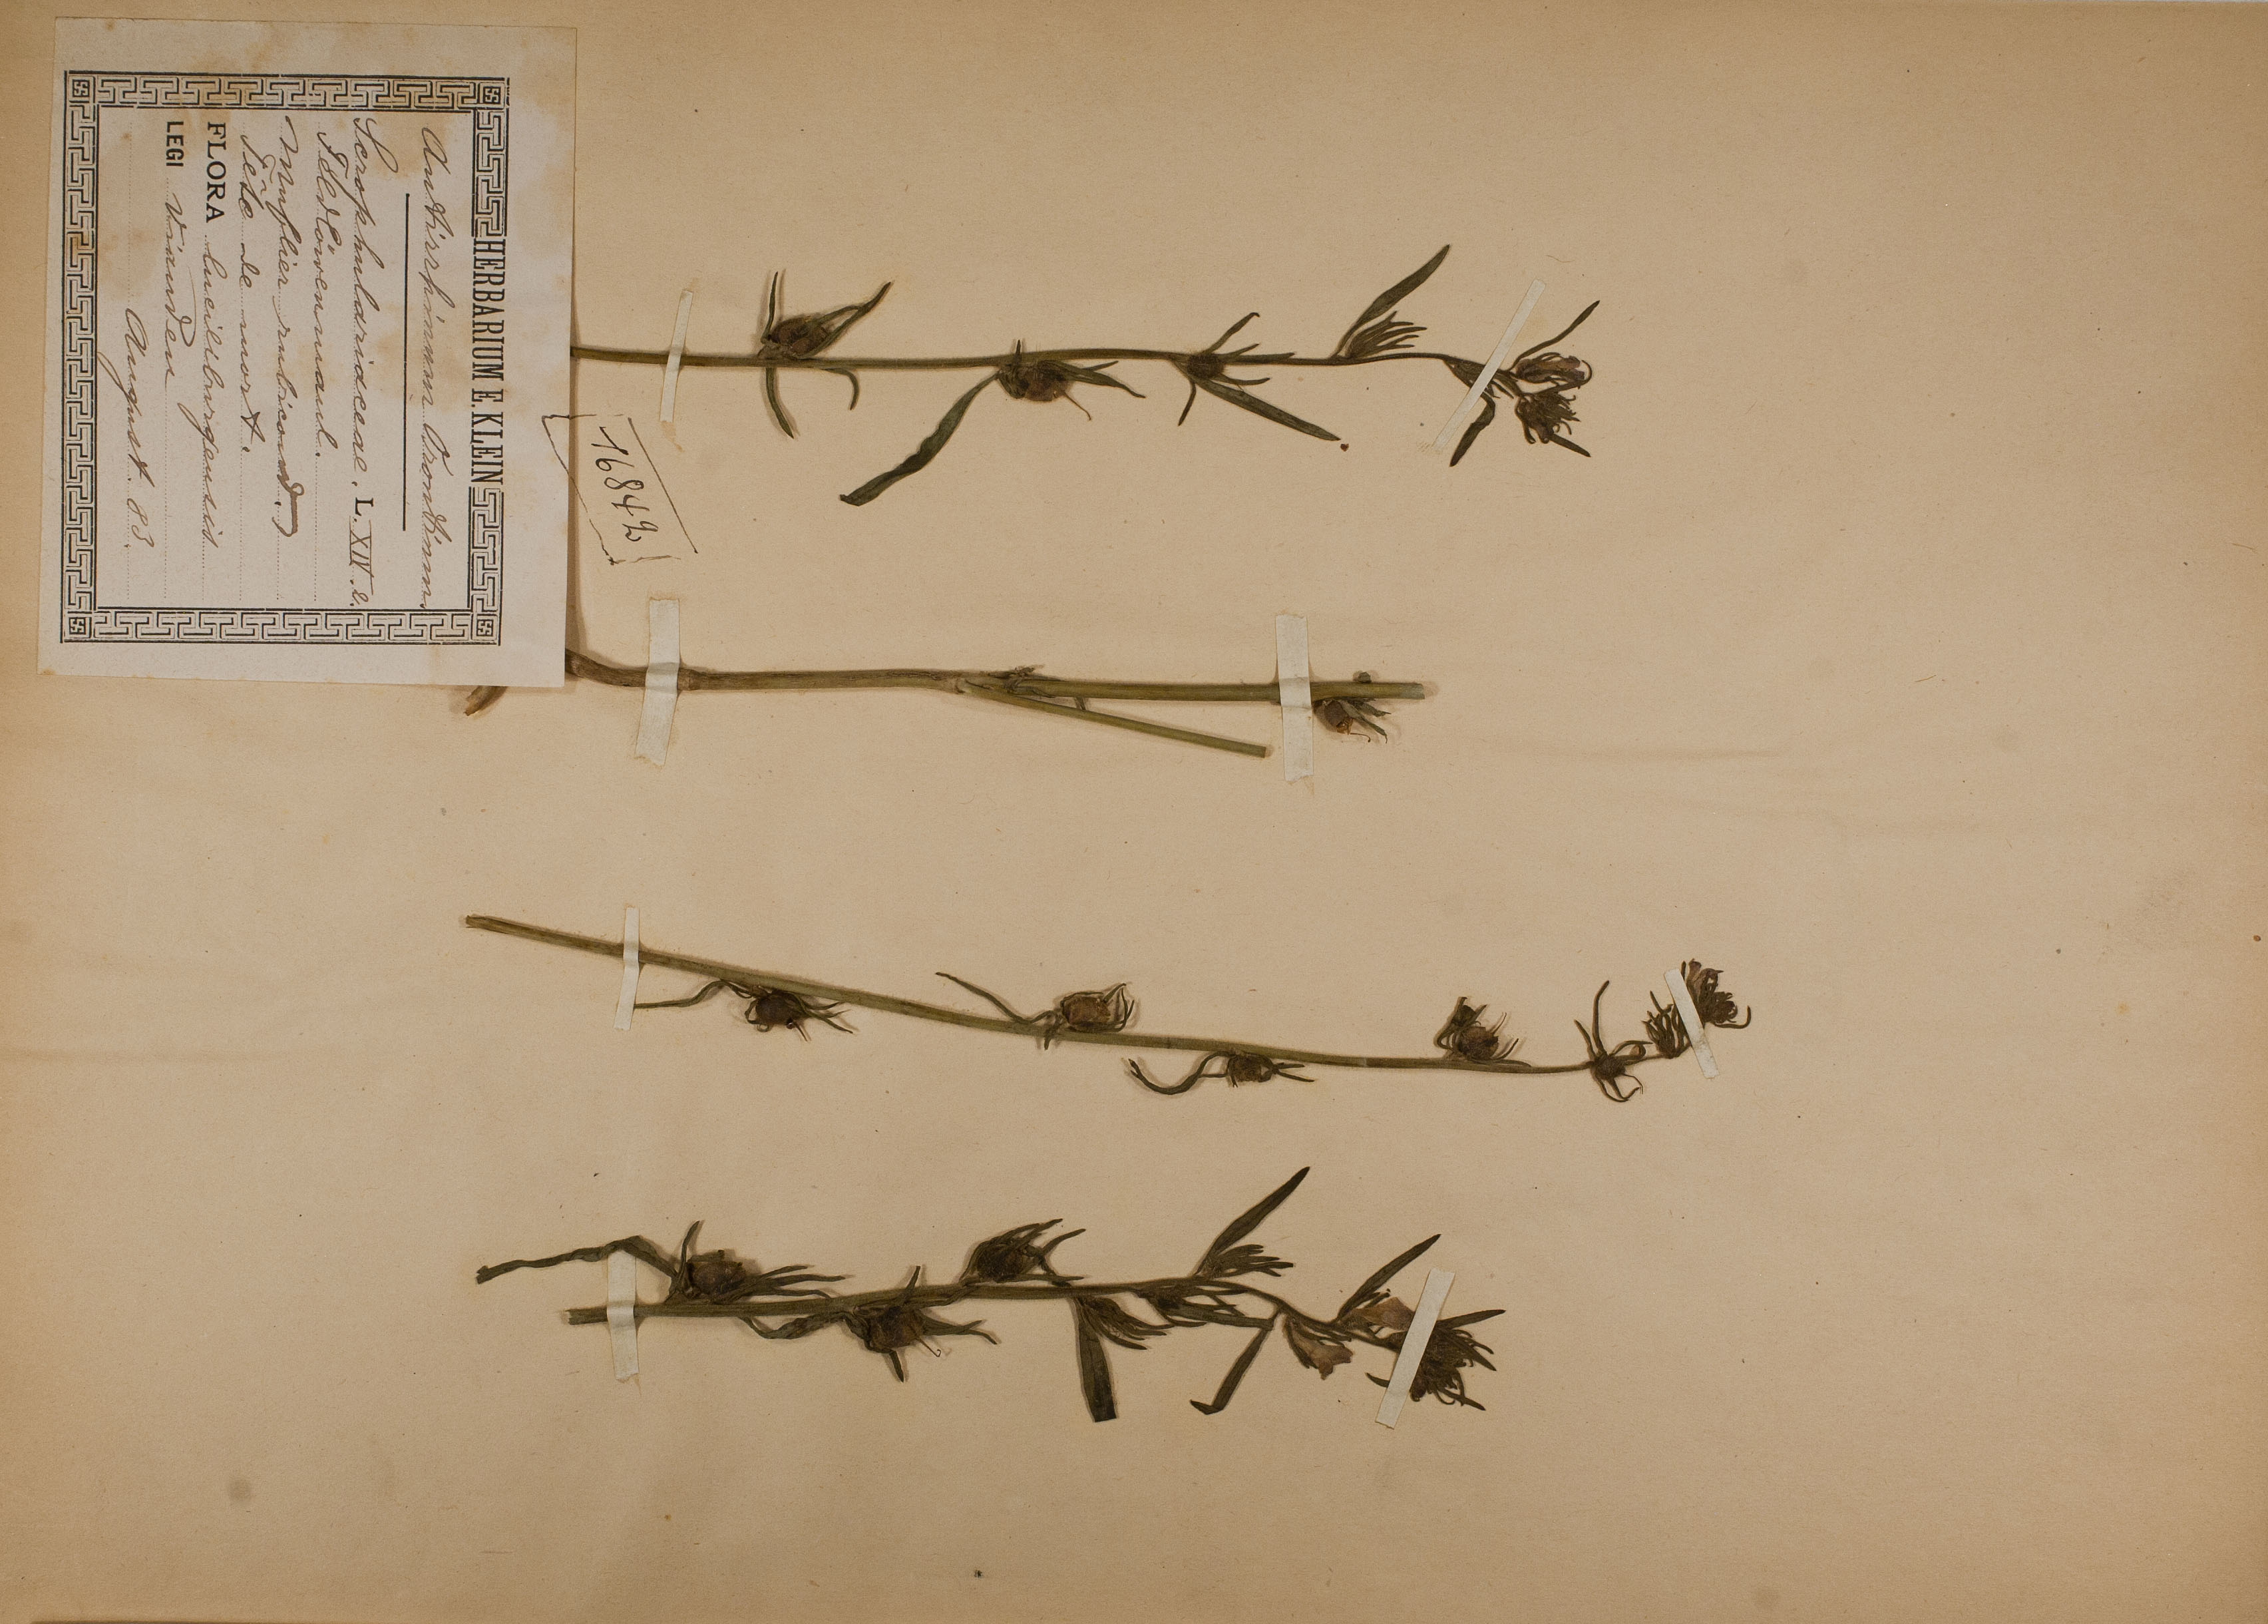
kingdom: Plantae
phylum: Tracheophyta
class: Magnoliopsida
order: Lamiales
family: Plantaginaceae
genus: Misopates
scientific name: Misopates orontium
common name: Weasel's-snout
